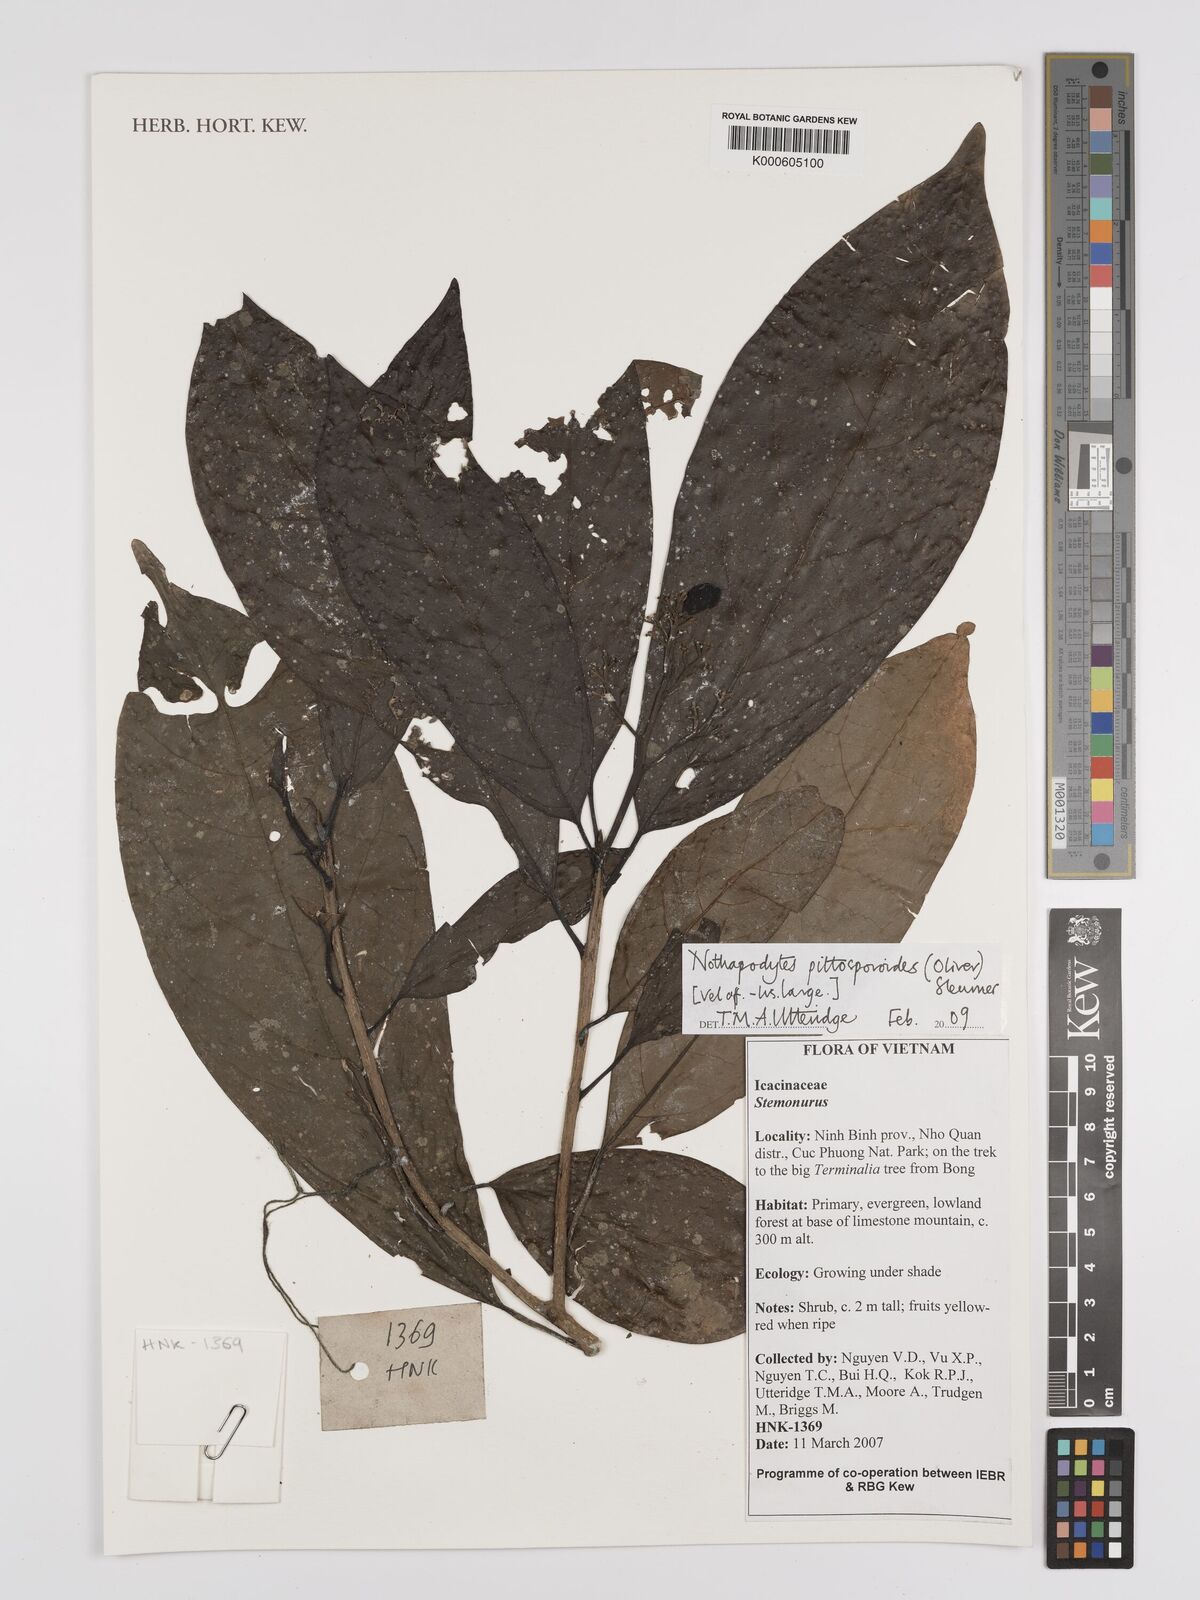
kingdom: Plantae
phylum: Tracheophyta
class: Magnoliopsida
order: Icacinales
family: Icacinaceae
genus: Nothapodytes
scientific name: Nothapodytes pittosporoides
